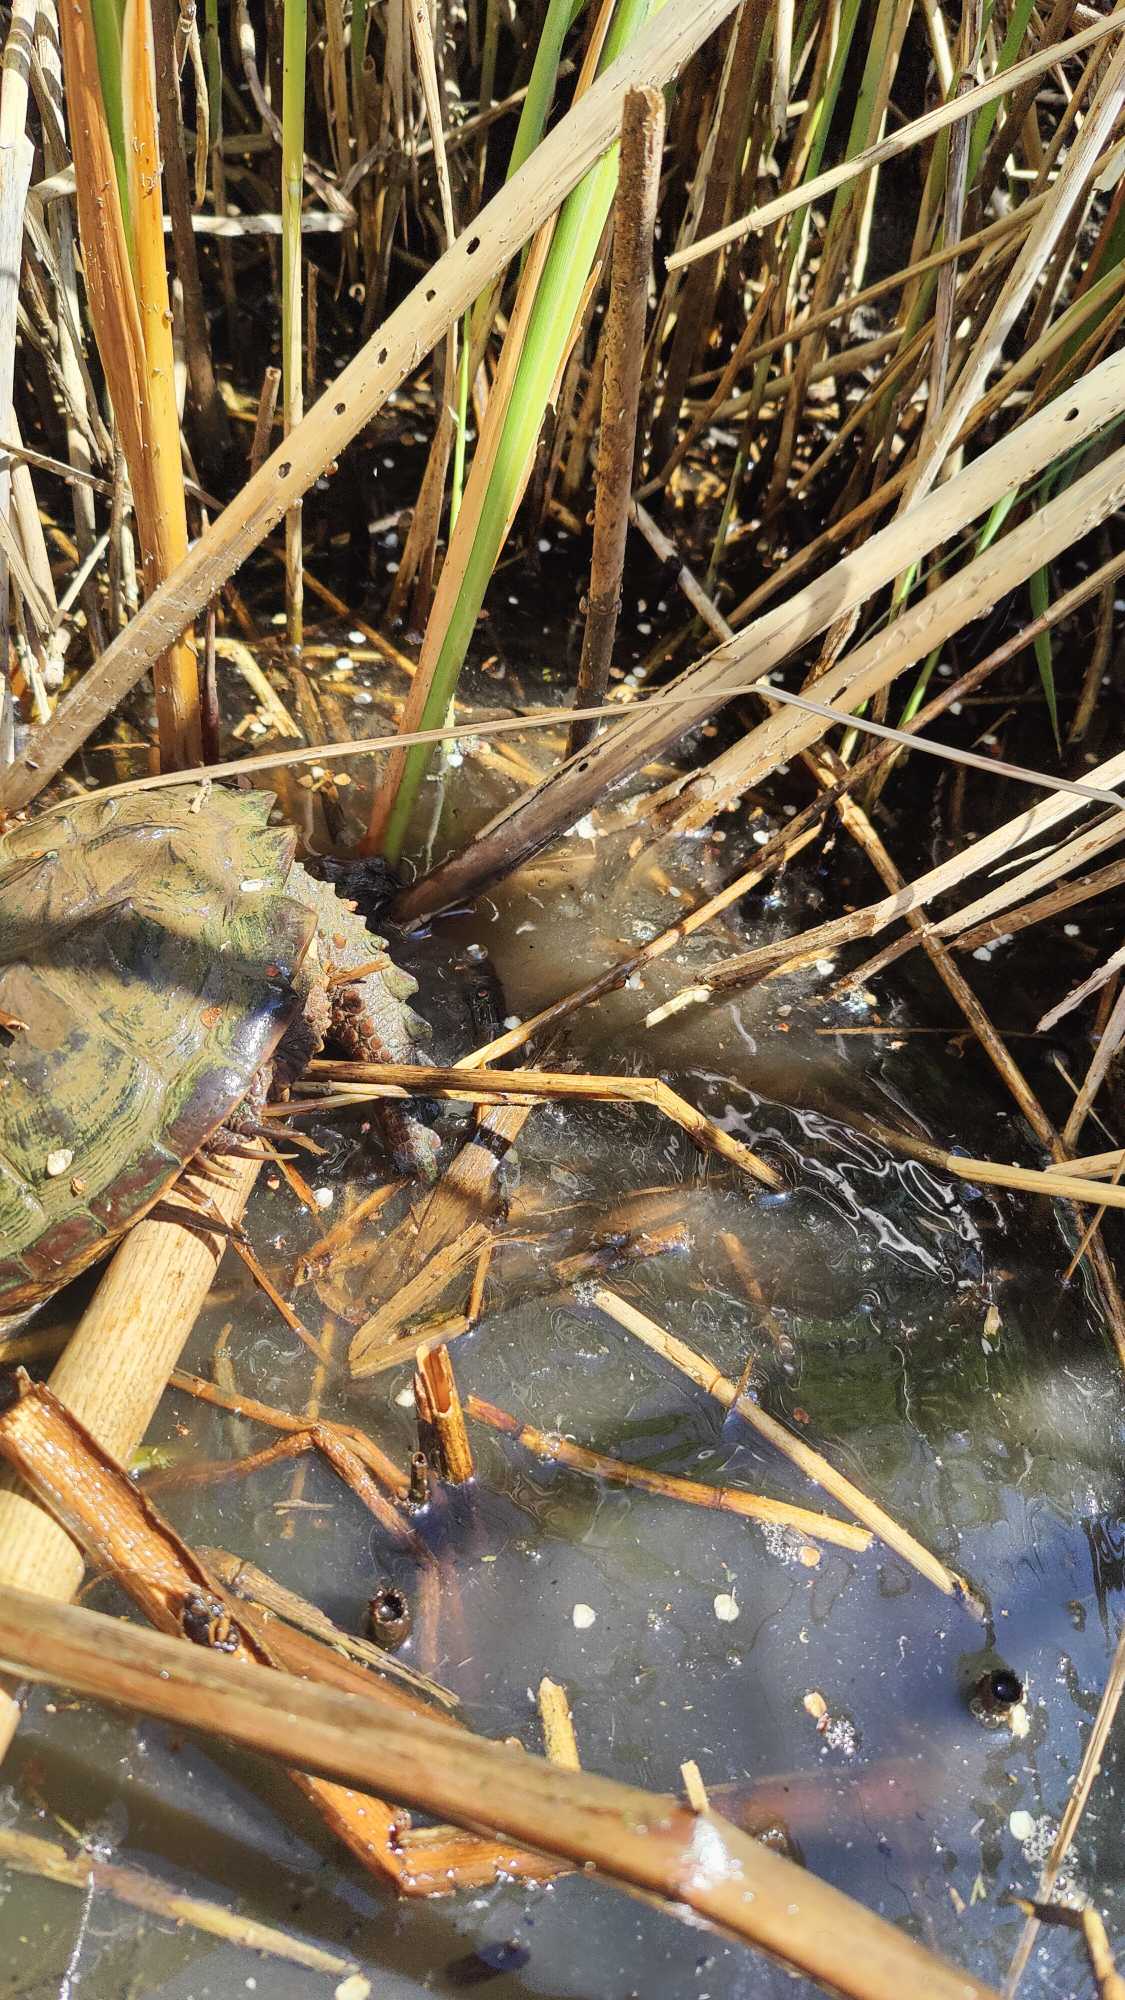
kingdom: Animalia
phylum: Chordata
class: Testudines
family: Chelydridae
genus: Chelydra
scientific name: Chelydra serpentina
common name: Nordamerikansk snapskildpadde
